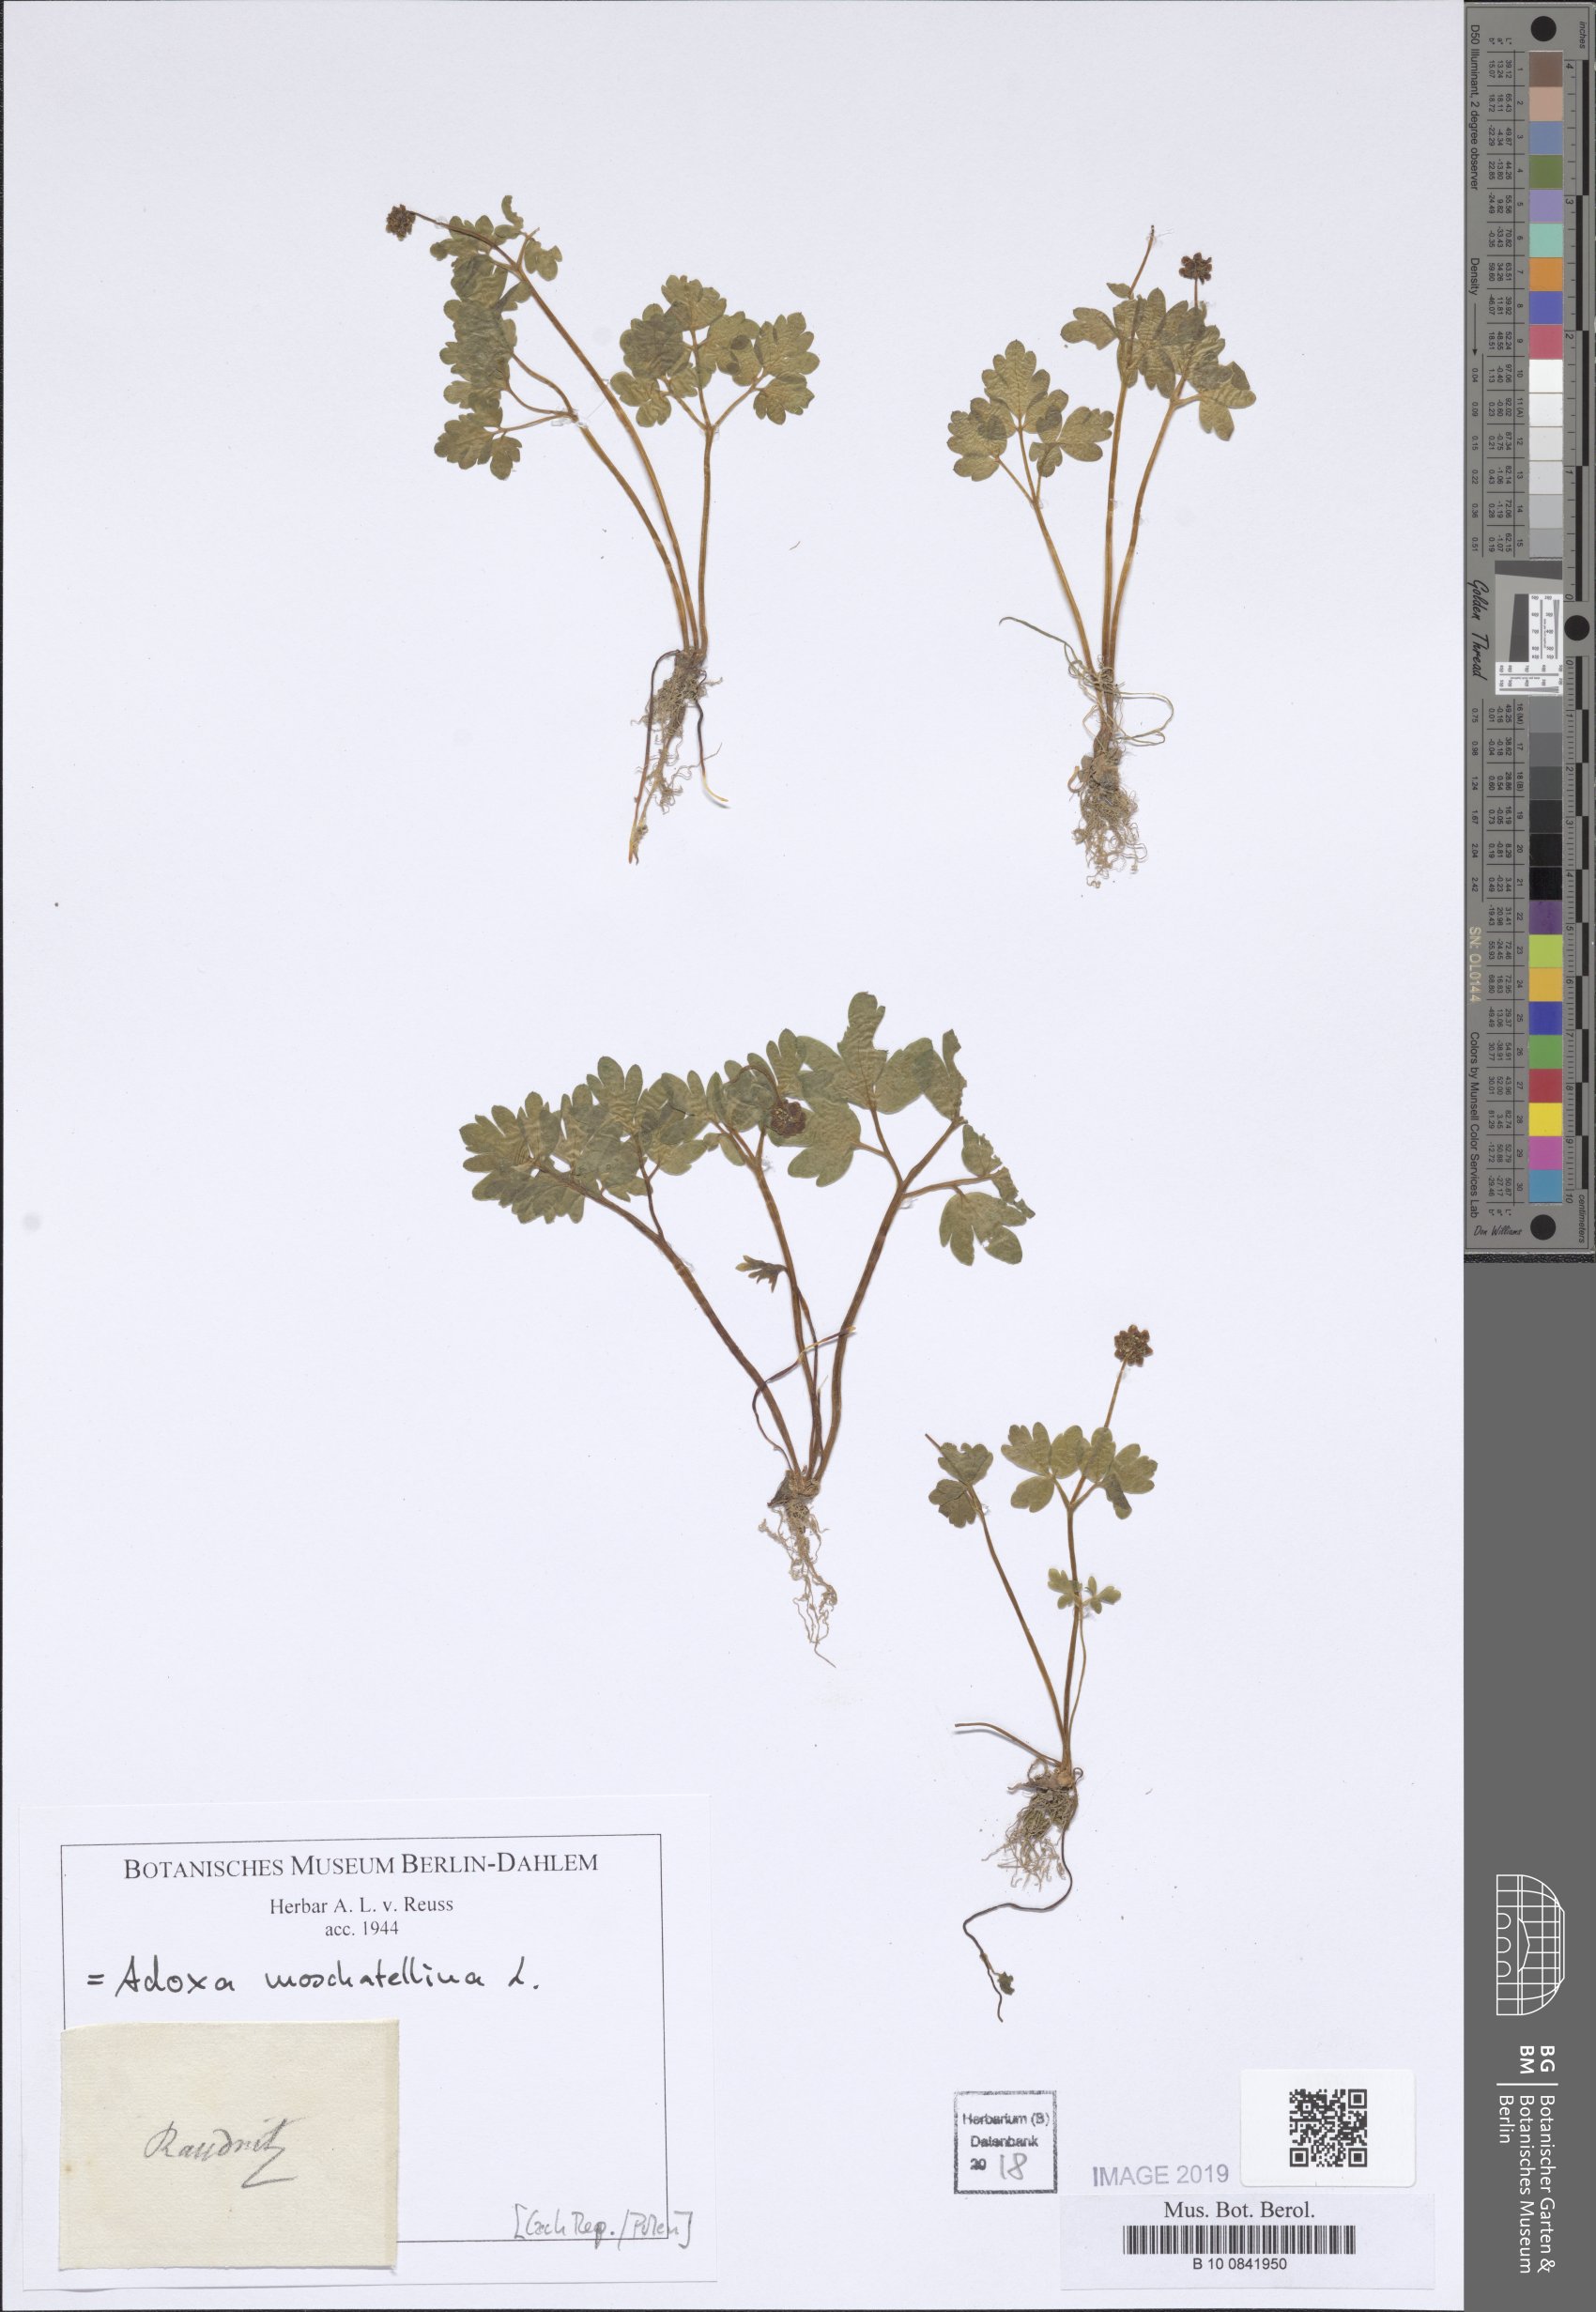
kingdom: Plantae
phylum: Tracheophyta
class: Magnoliopsida
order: Dipsacales
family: Viburnaceae
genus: Adoxa
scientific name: Adoxa moschatellina
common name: Moschatel
